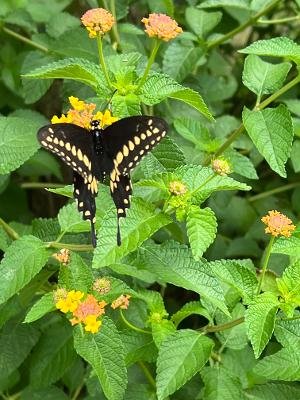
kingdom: Animalia
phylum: Arthropoda
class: Insecta
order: Lepidoptera
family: Papilionidae
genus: Papilio
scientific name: Papilio polyxenes
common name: Black Swallowtail
